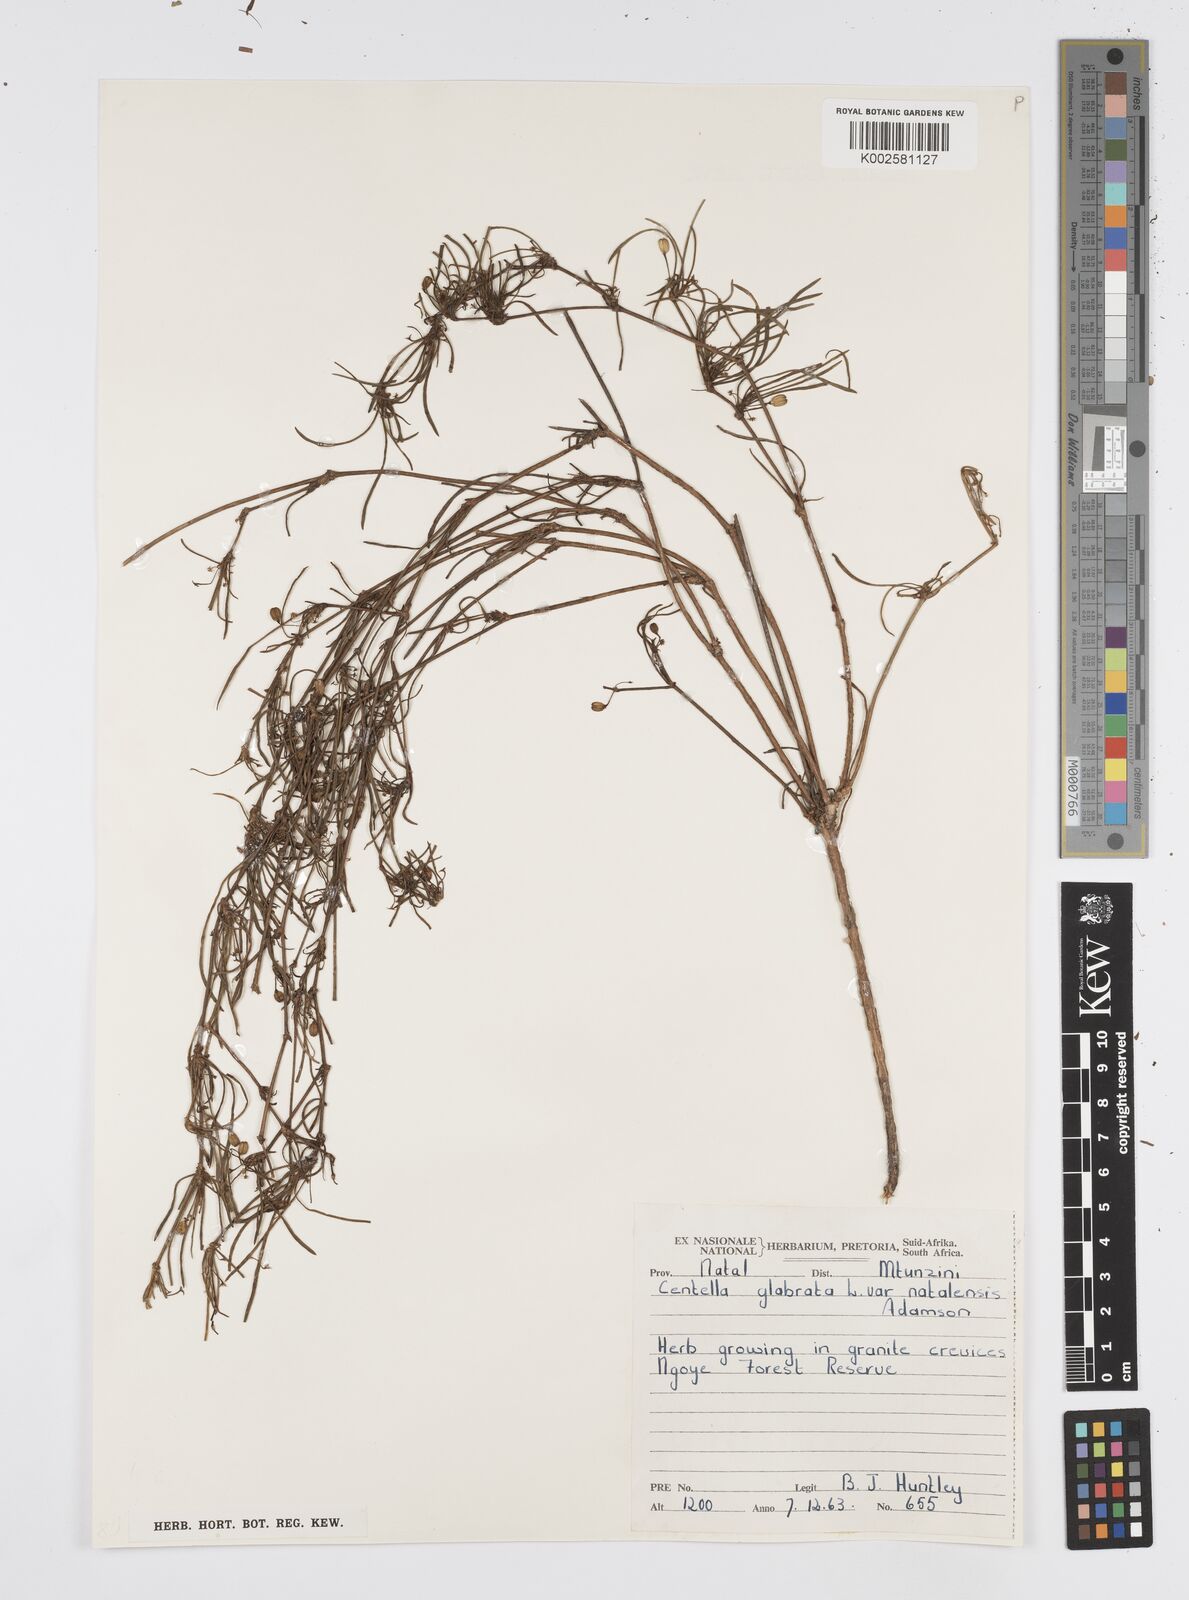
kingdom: Plantae
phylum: Tracheophyta
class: Magnoliopsida
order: Apiales
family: Apiaceae
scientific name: Apiaceae
